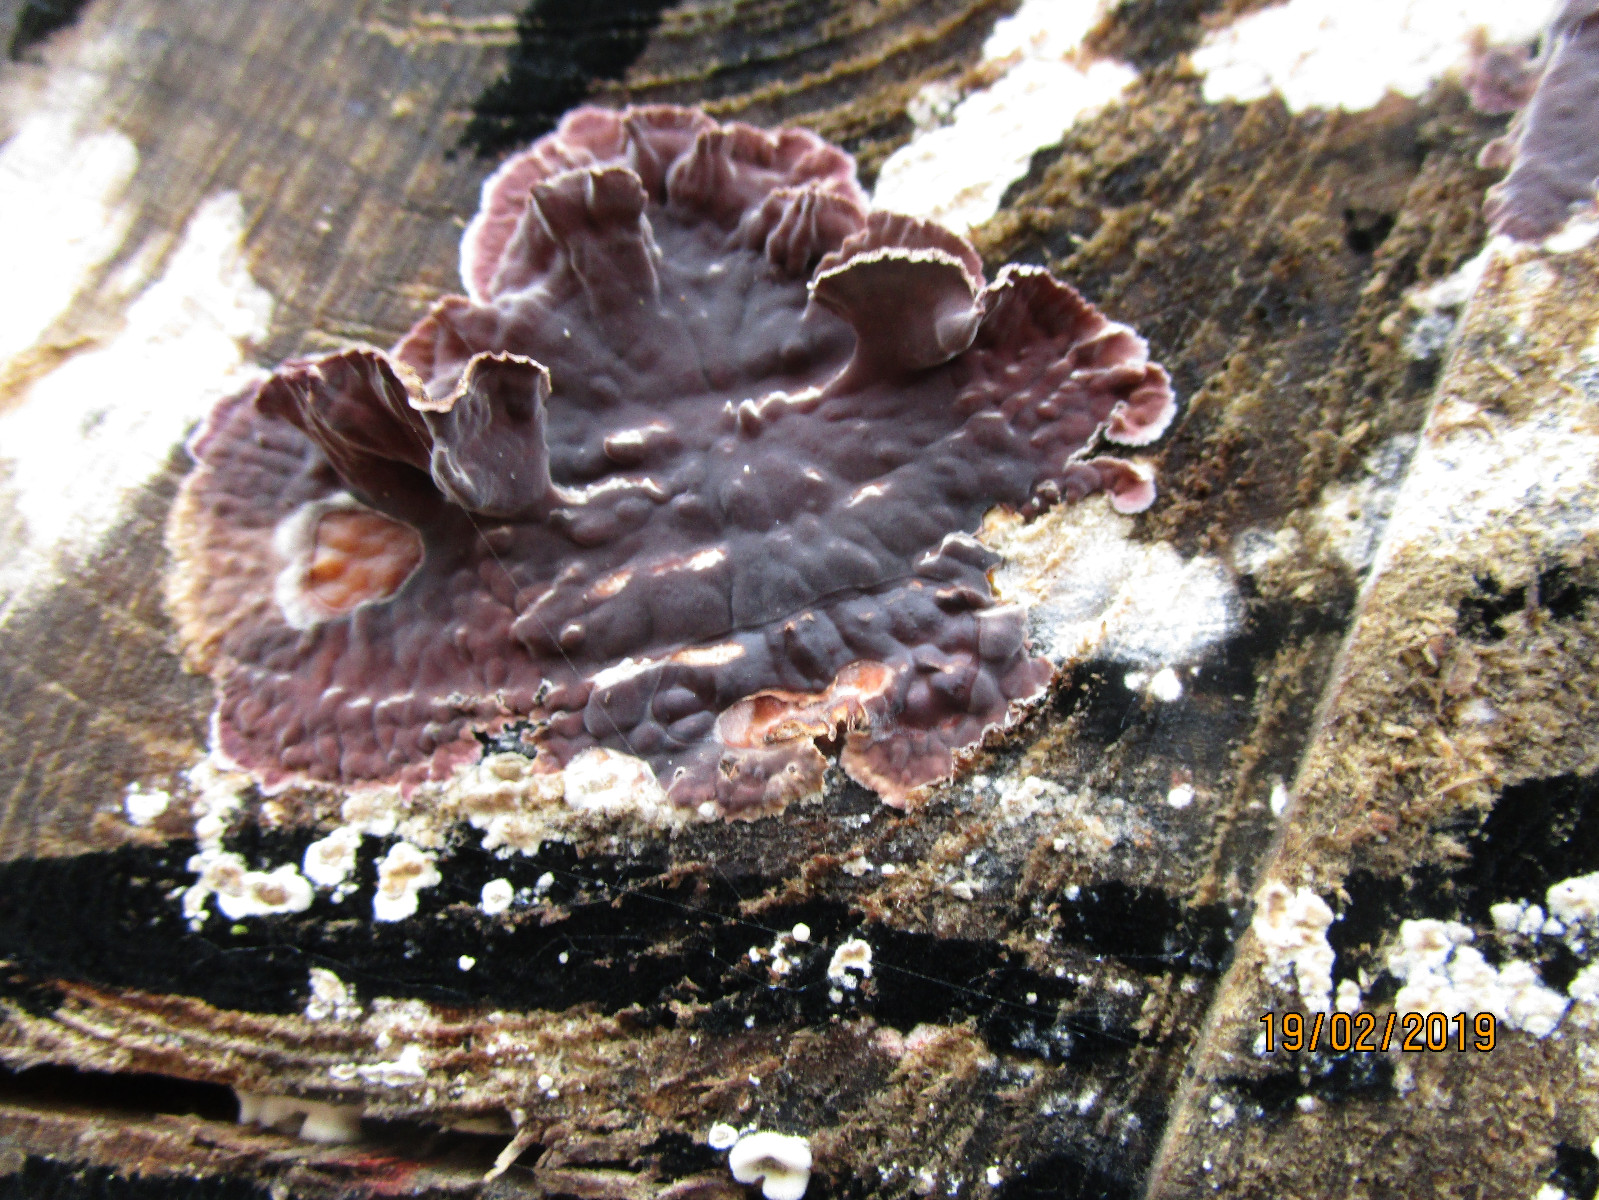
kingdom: Fungi
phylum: Basidiomycota
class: Agaricomycetes
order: Agaricales
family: Cyphellaceae
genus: Chondrostereum
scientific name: Chondrostereum purpureum
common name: purpurlædersvamp
